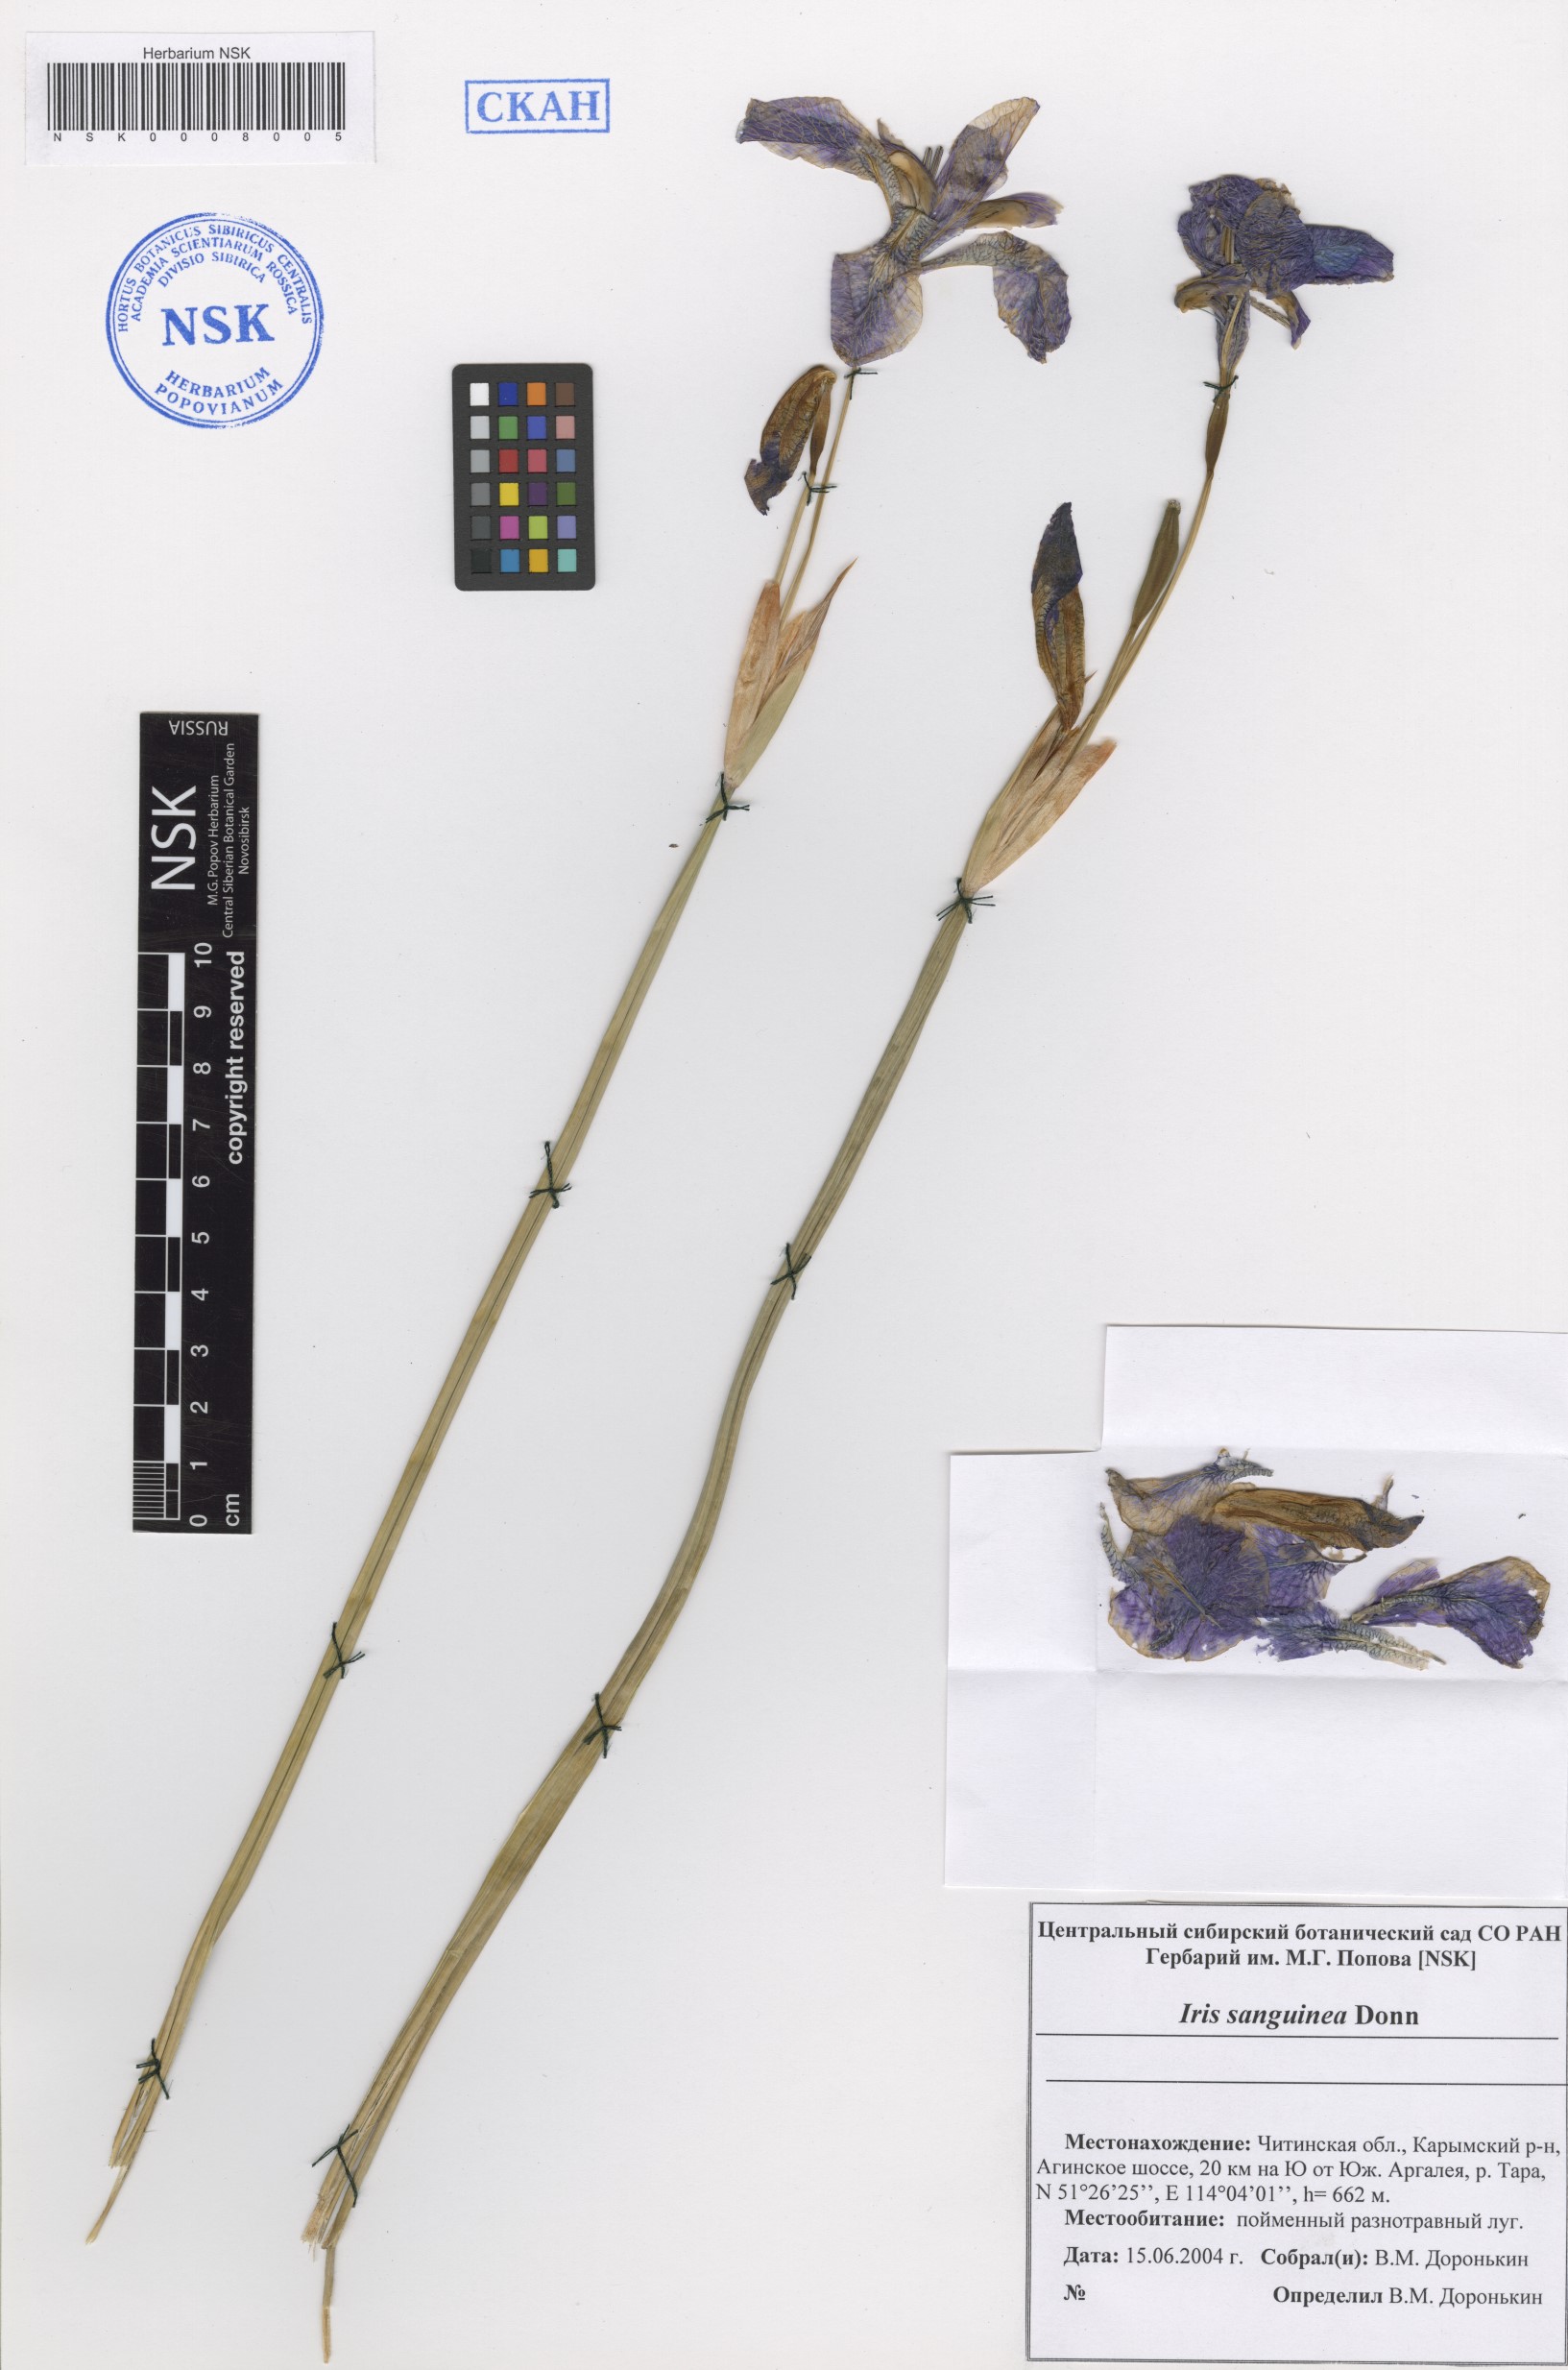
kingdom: Plantae
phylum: Tracheophyta
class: Liliopsida
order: Asparagales
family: Iridaceae
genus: Iris
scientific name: Iris sanguinea
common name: Blood iris
